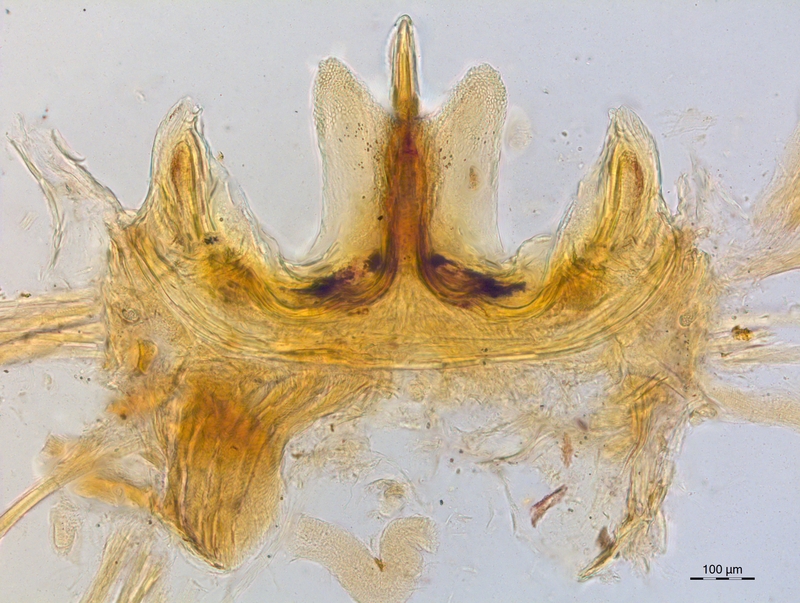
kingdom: Animalia
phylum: Arthropoda
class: Diplopoda
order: Chordeumatida
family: Craspedosomatidae
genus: Craspedosoma
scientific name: Craspedosoma furculigerum
